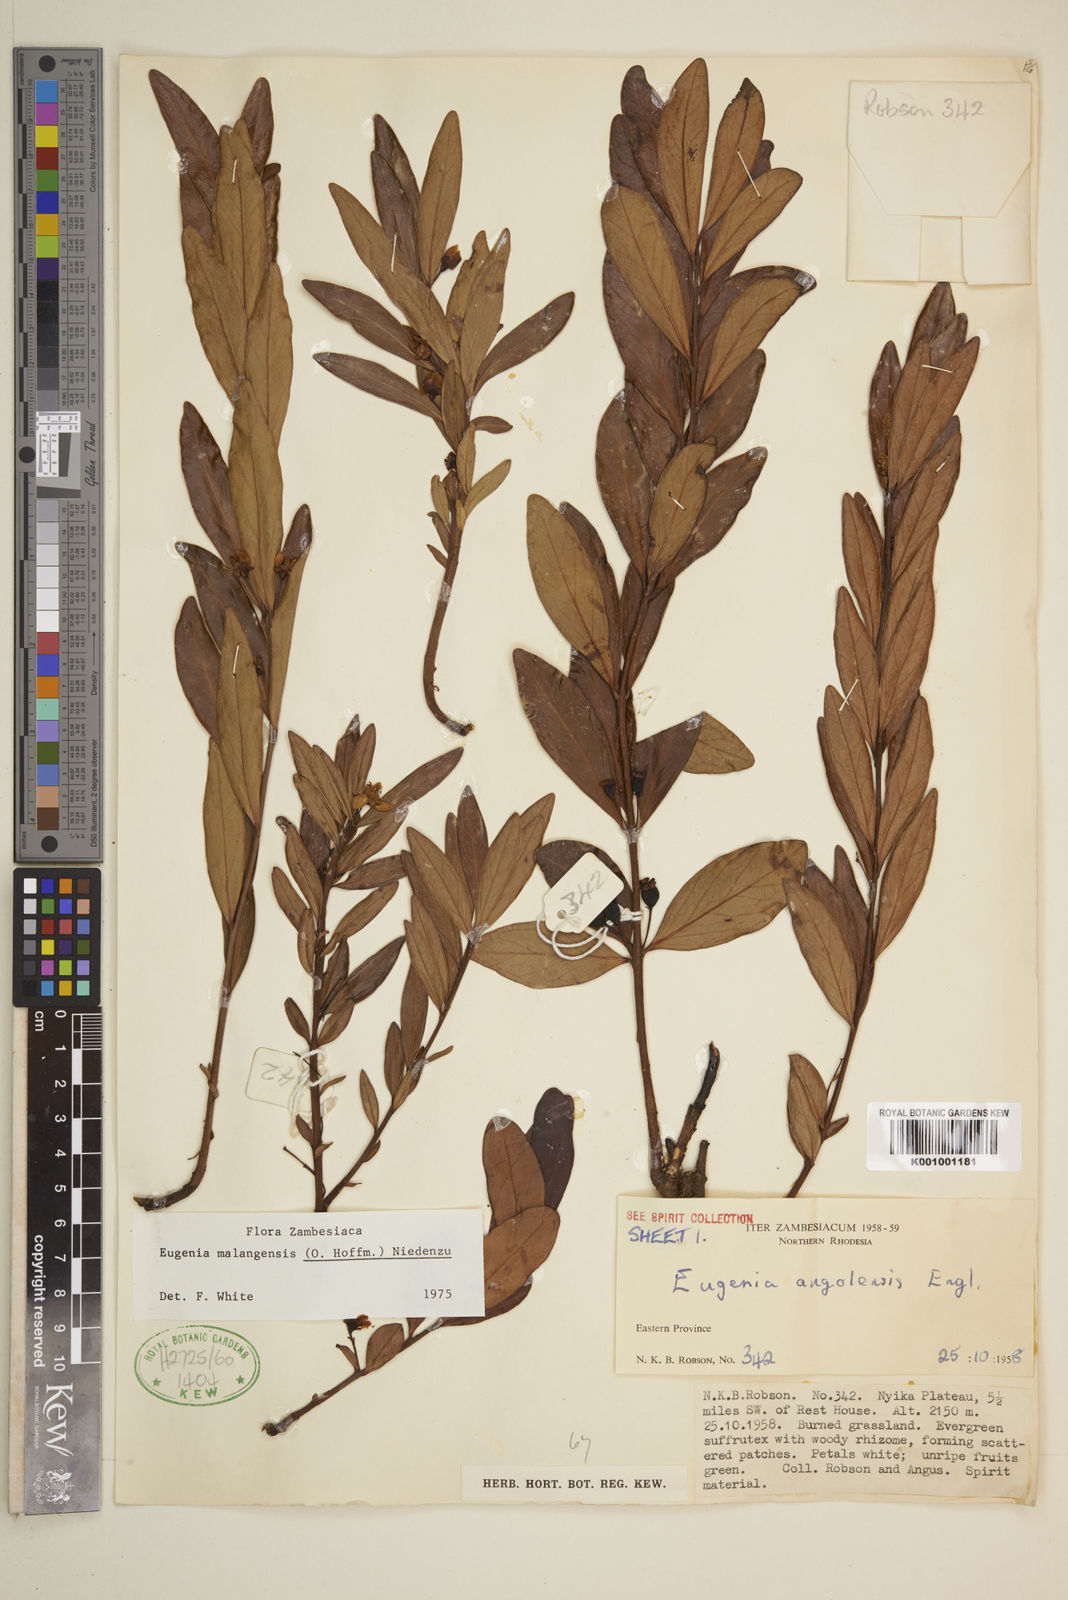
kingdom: Plantae
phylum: Tracheophyta
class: Magnoliopsida
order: Myrtales
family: Myrtaceae
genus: Eugenia
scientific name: Eugenia malangensis
